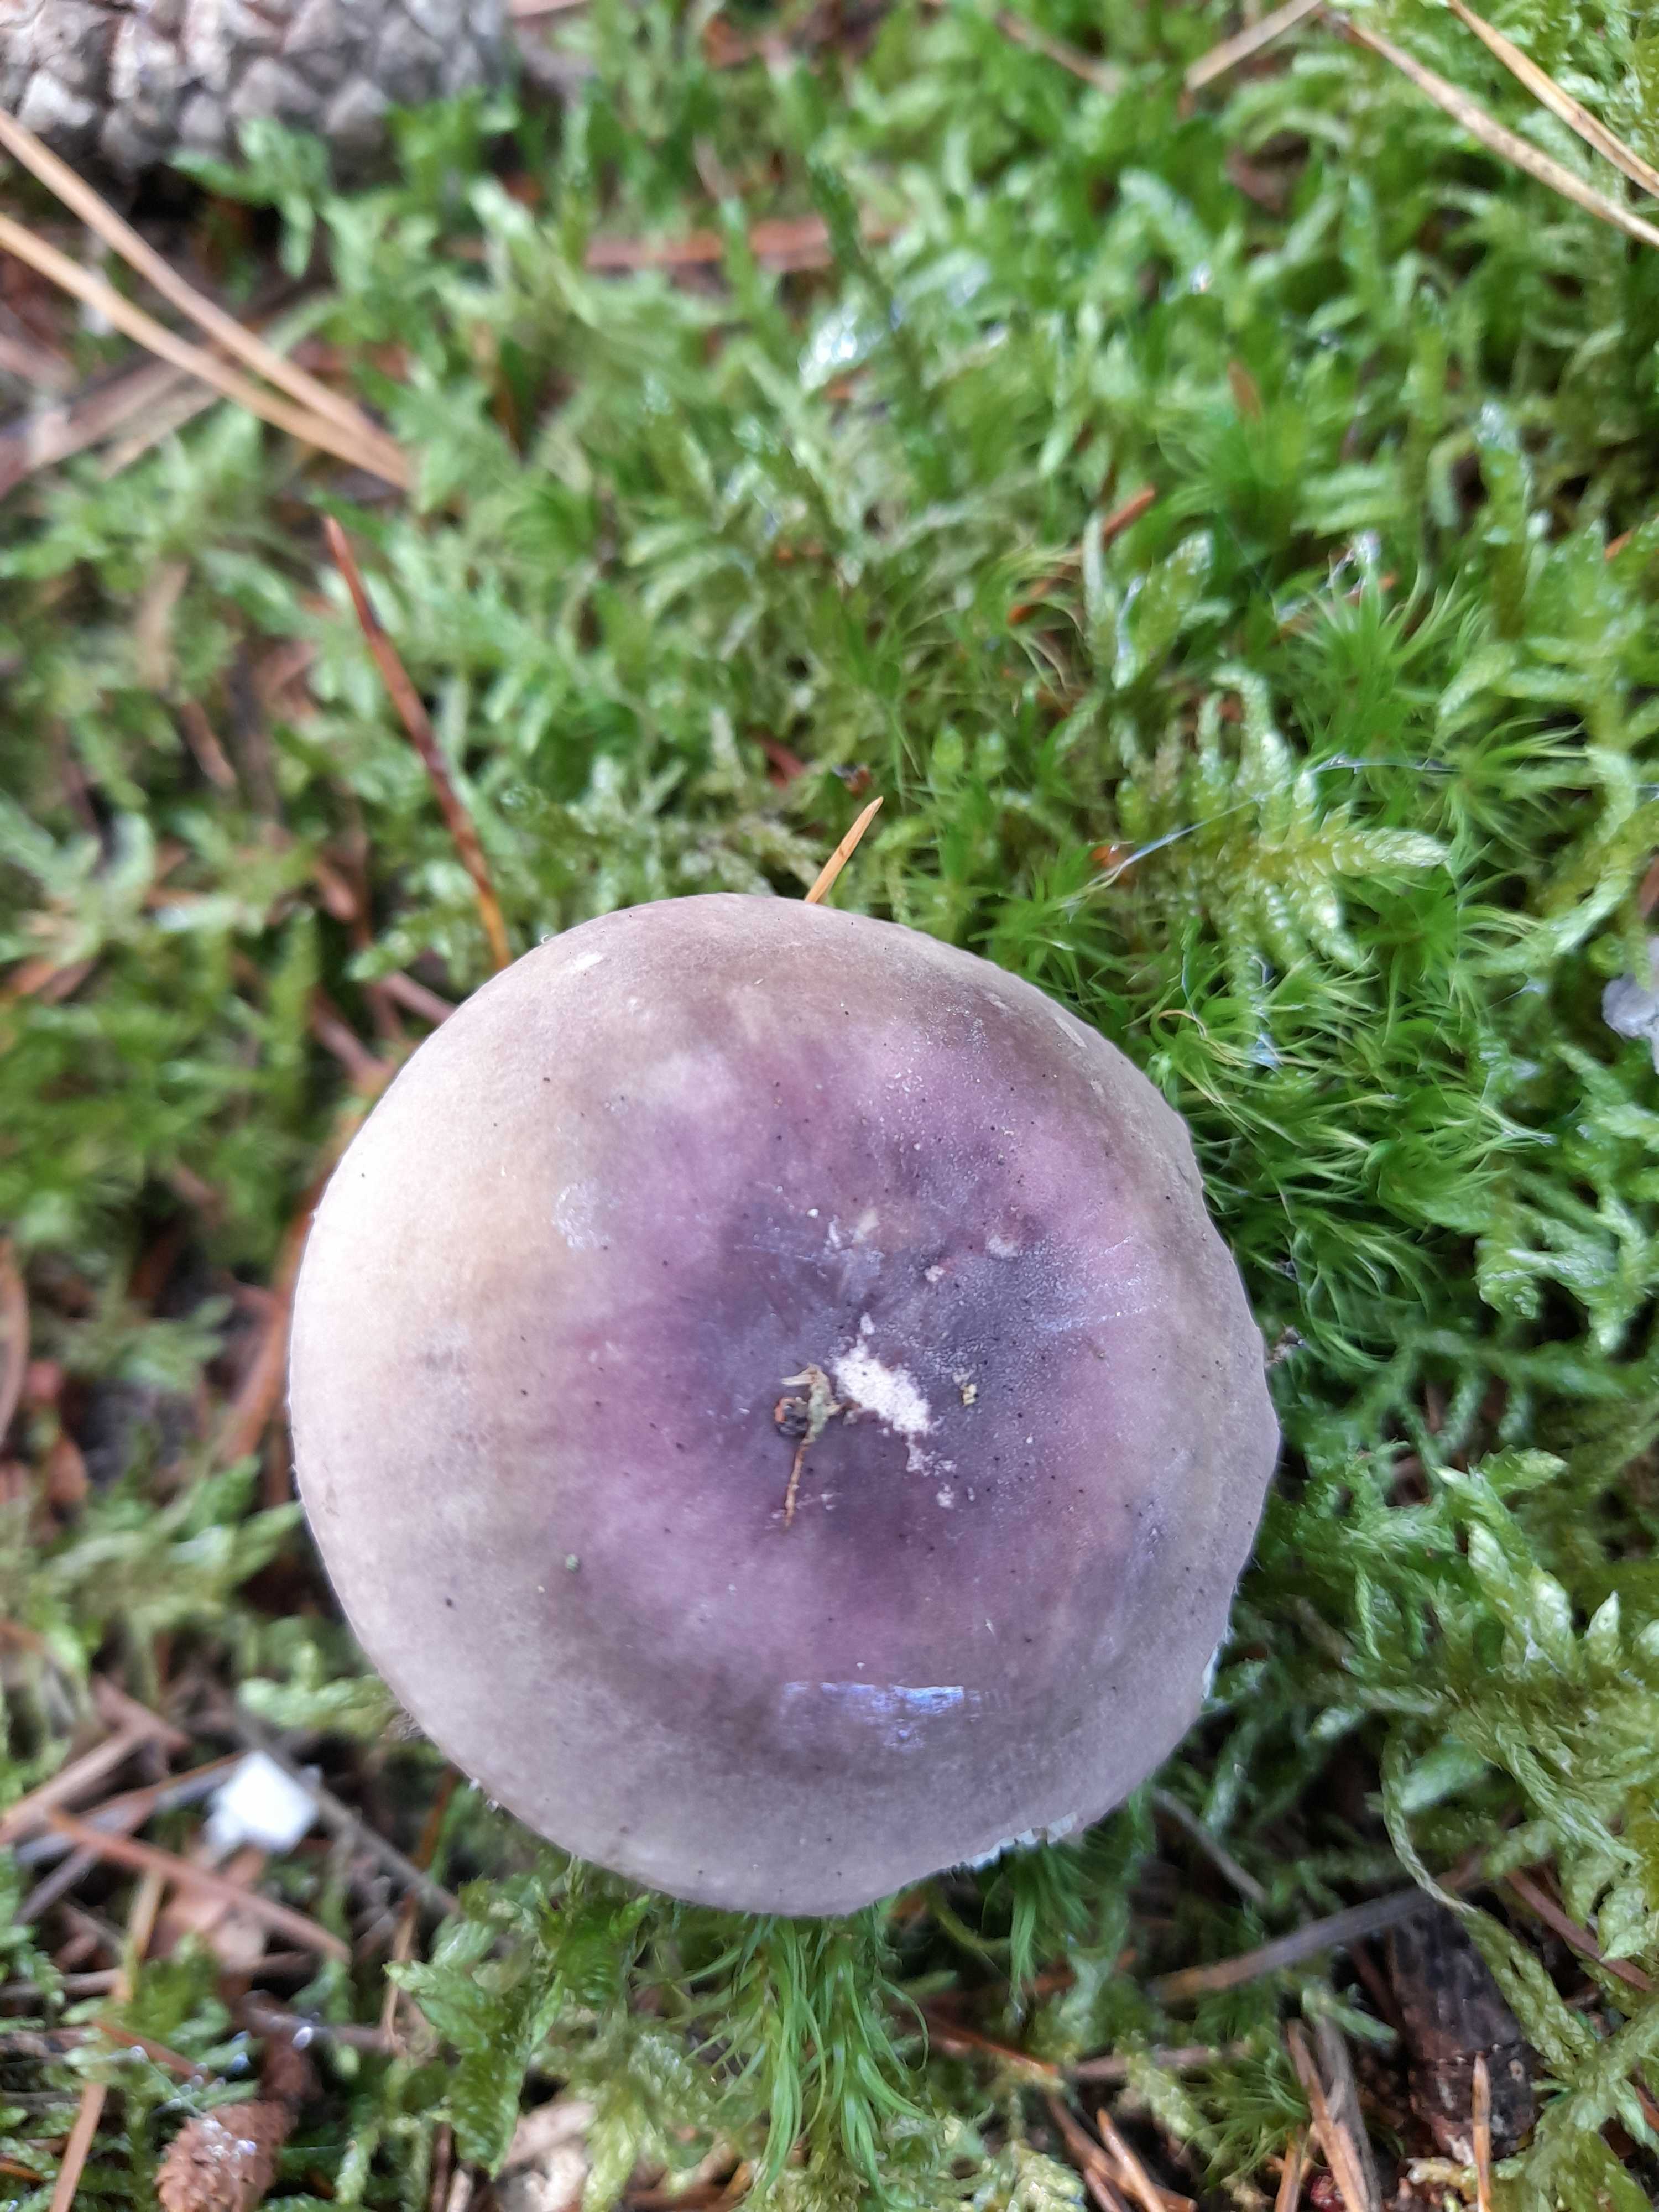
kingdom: Fungi
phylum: Basidiomycota
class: Agaricomycetes
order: Russulales
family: Russulaceae
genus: Russula
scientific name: Russula
